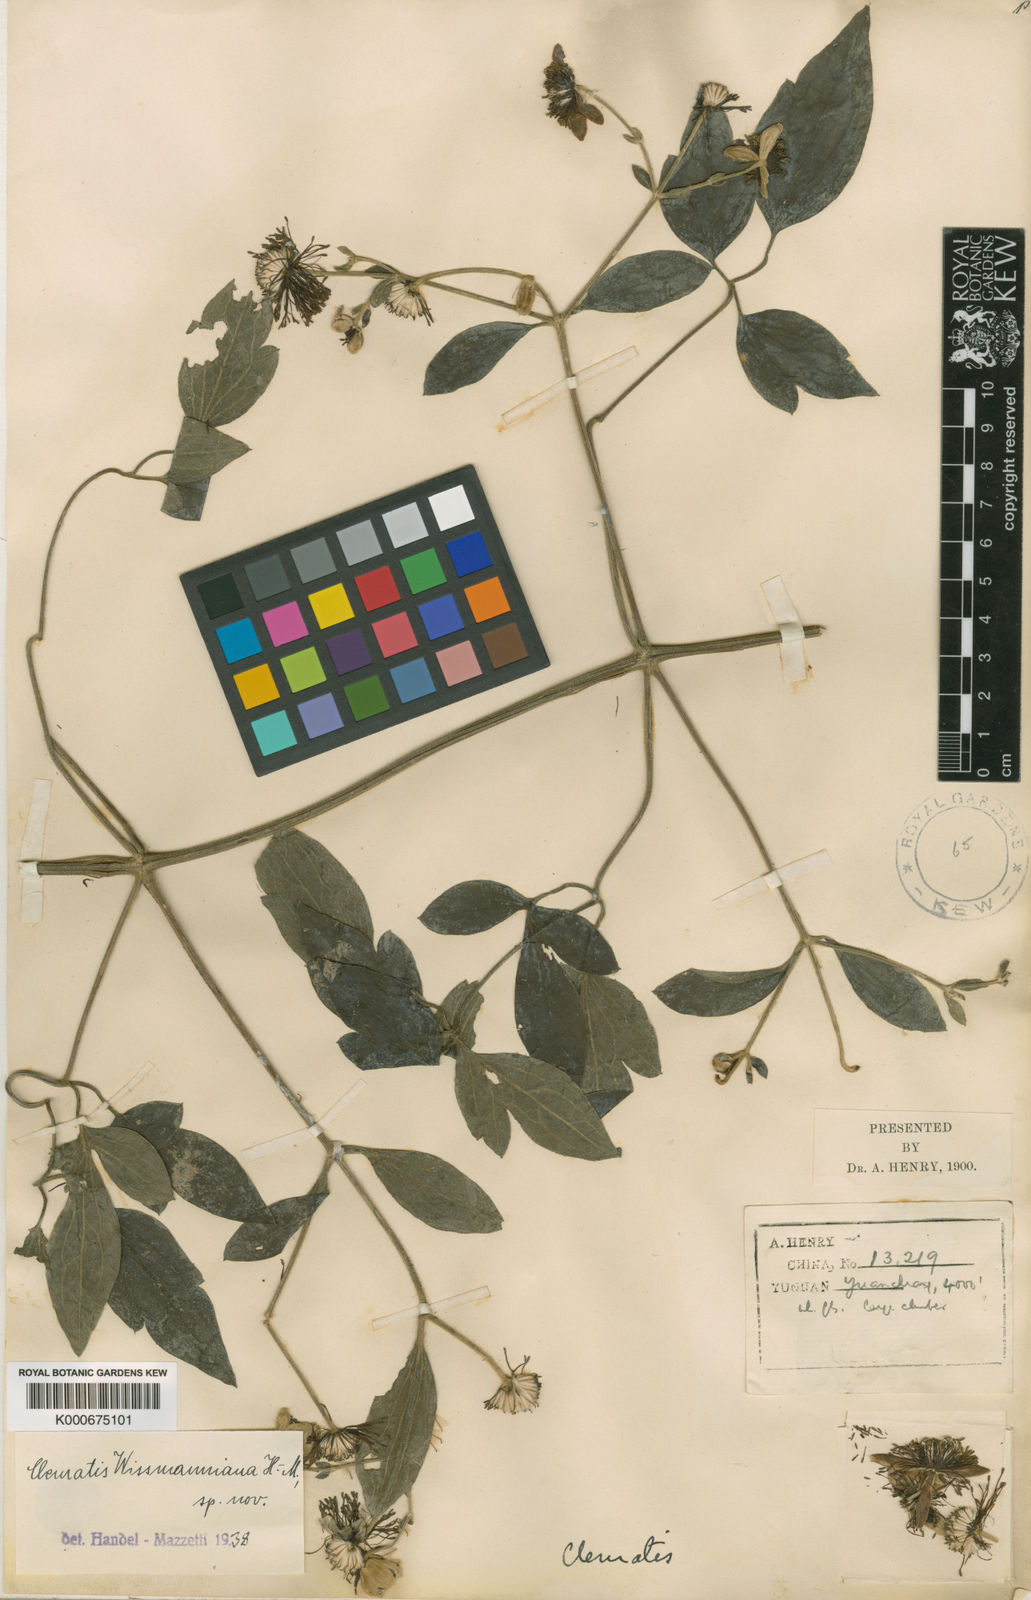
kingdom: Plantae
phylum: Tracheophyta
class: Magnoliopsida
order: Ranunculales
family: Ranunculaceae
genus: Clematis
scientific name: Clematis wissmanniana
